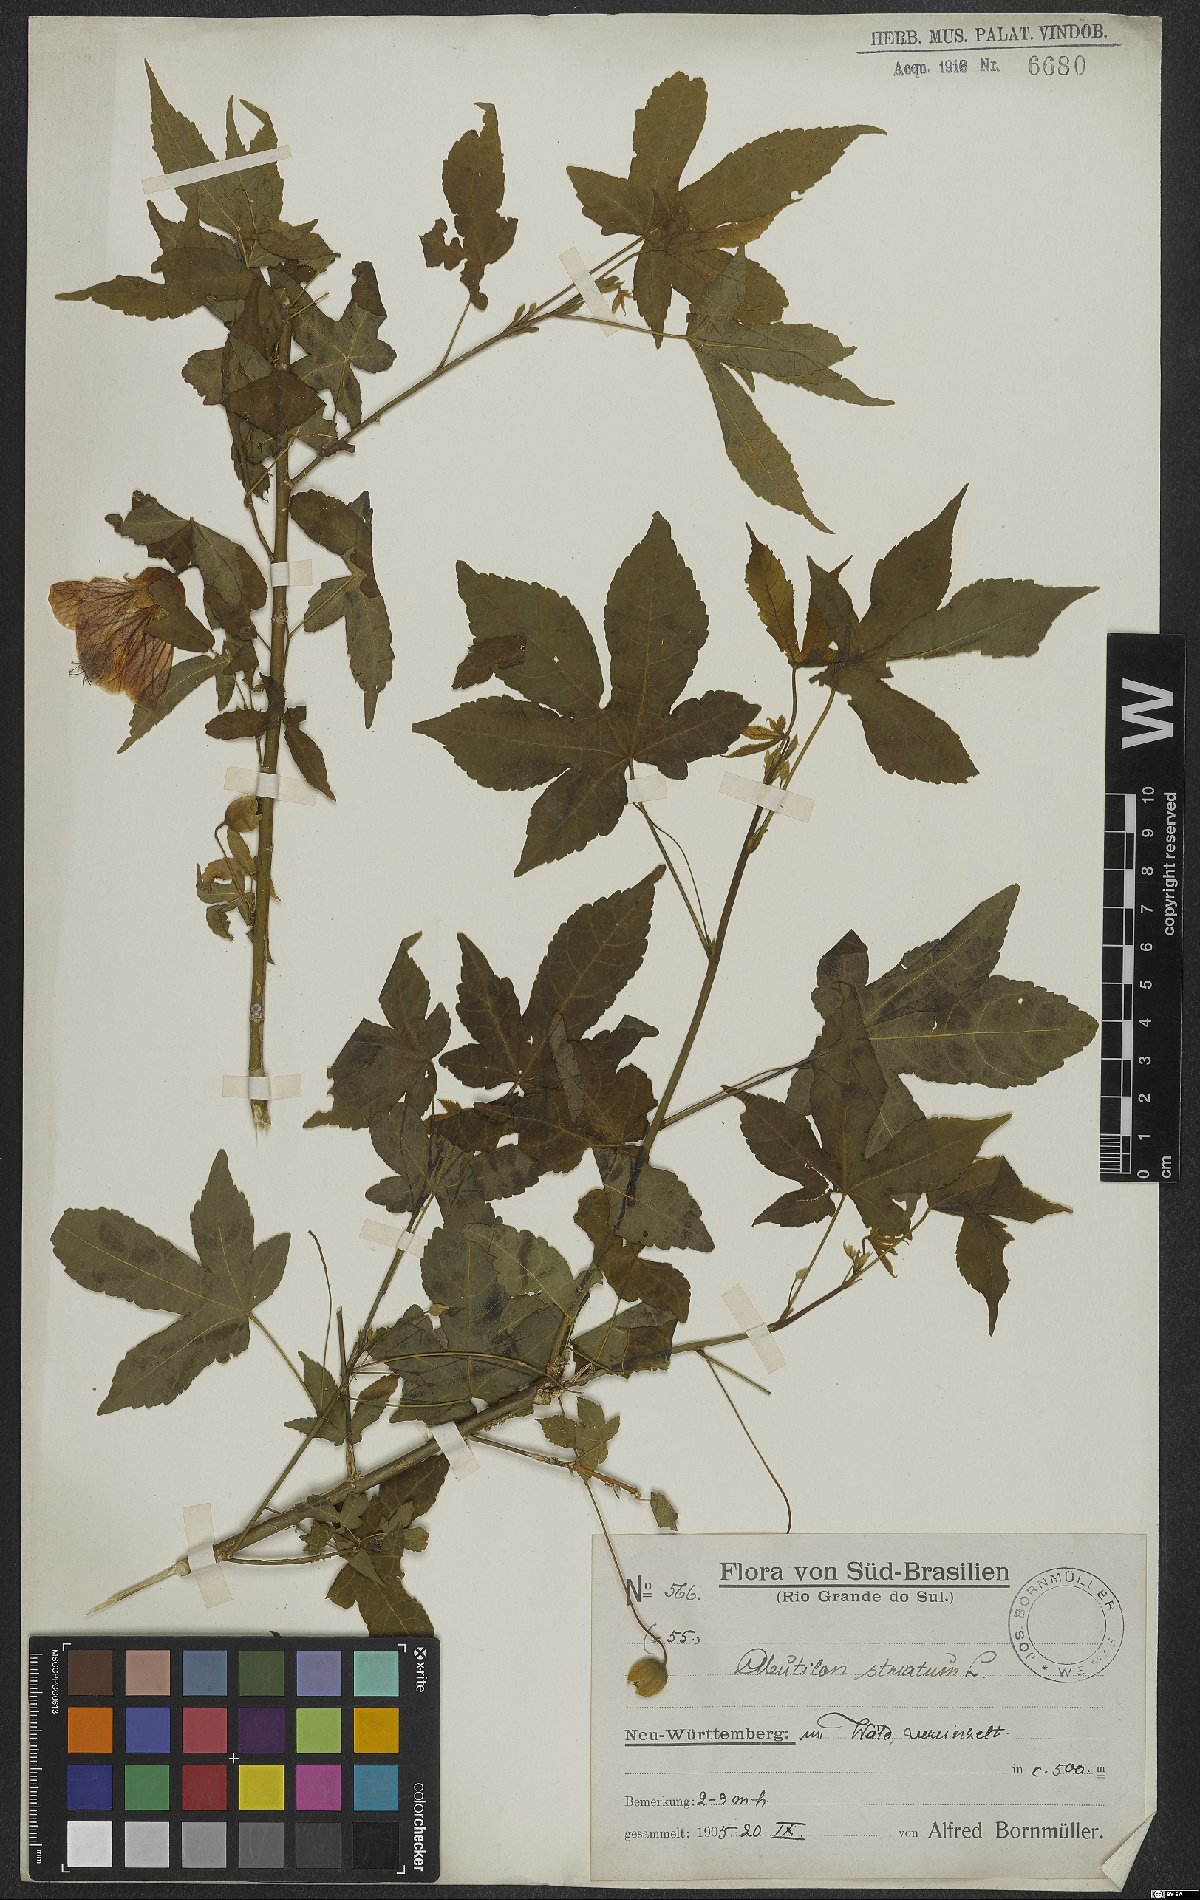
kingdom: Plantae
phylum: Tracheophyta
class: Magnoliopsida
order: Malvales
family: Malvaceae
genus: Callianthe
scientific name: Callianthe striata
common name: Flowering-maple
